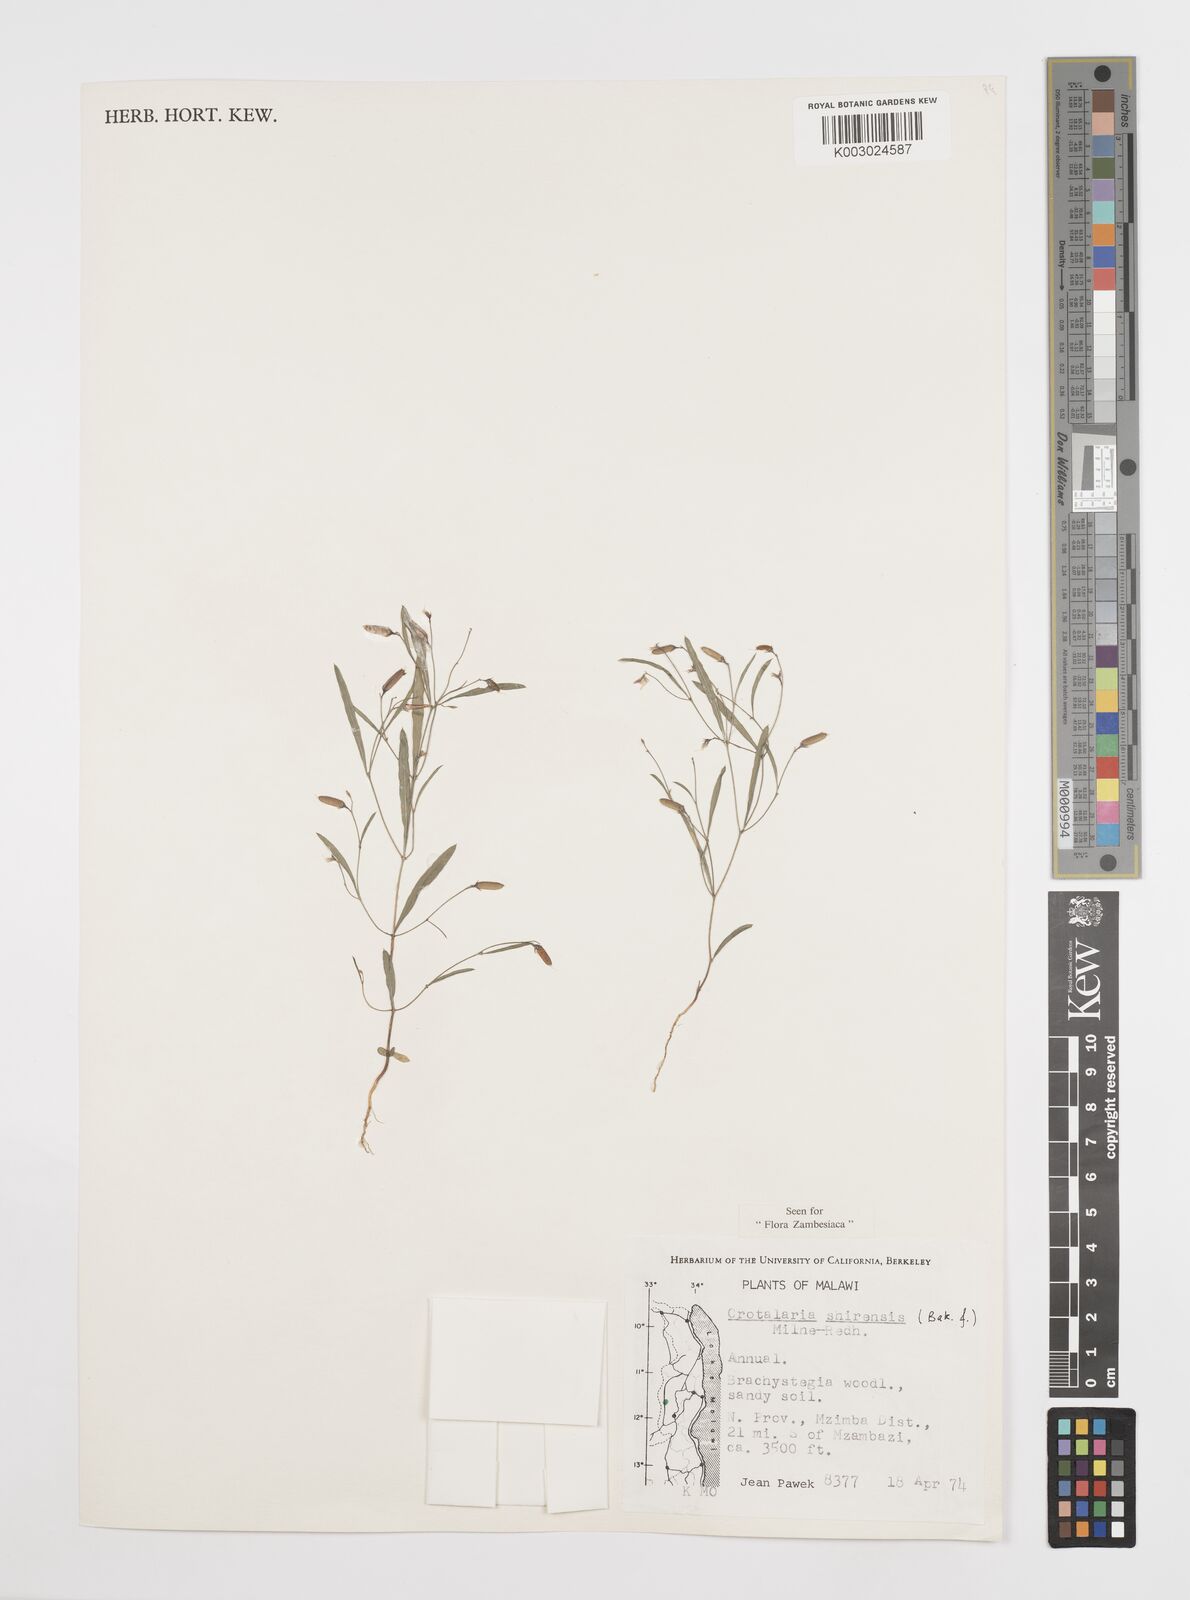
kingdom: Plantae
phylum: Tracheophyta
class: Magnoliopsida
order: Fabales
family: Fabaceae
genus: Crotalaria
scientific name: Crotalaria shirensis
